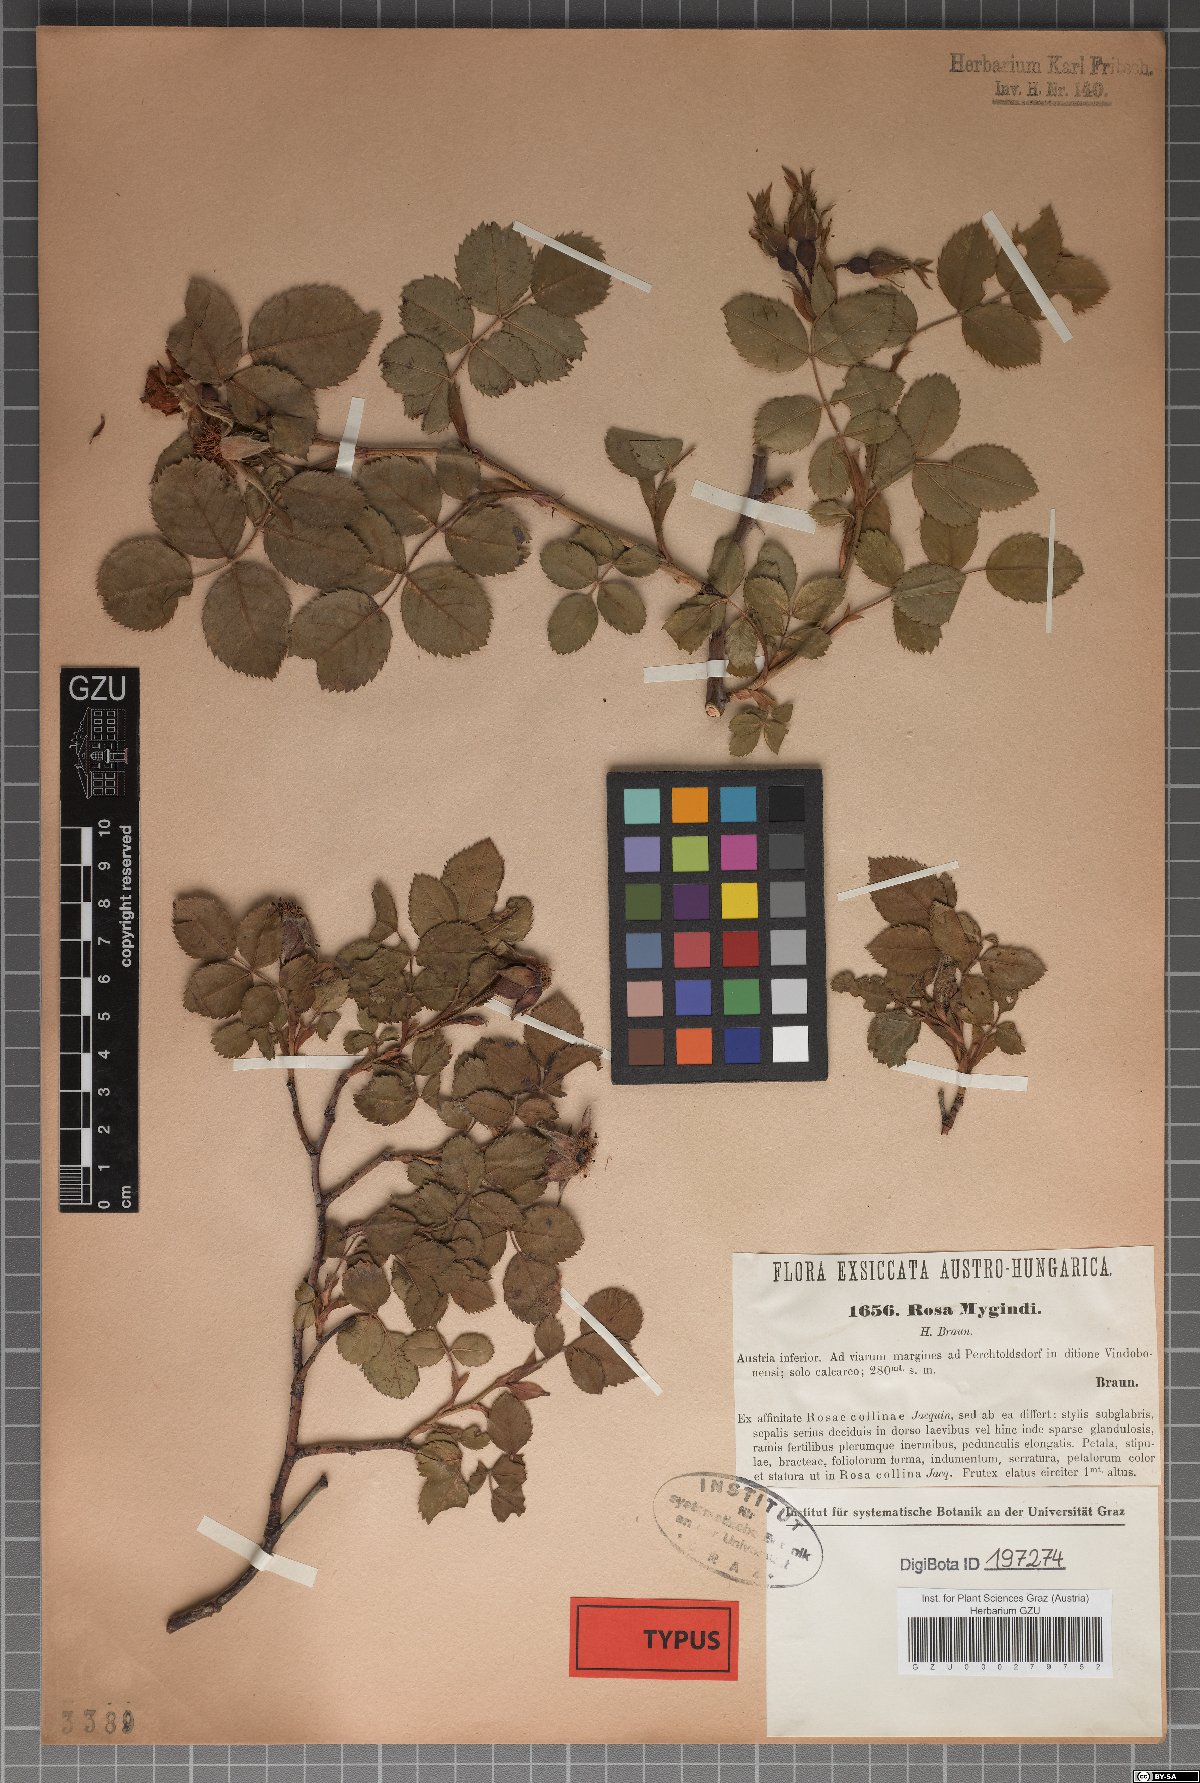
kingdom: Plantae
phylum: Tracheophyta
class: Magnoliopsida
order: Rosales
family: Rosaceae
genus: Rosa
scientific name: Rosa canina
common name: Dog rose
